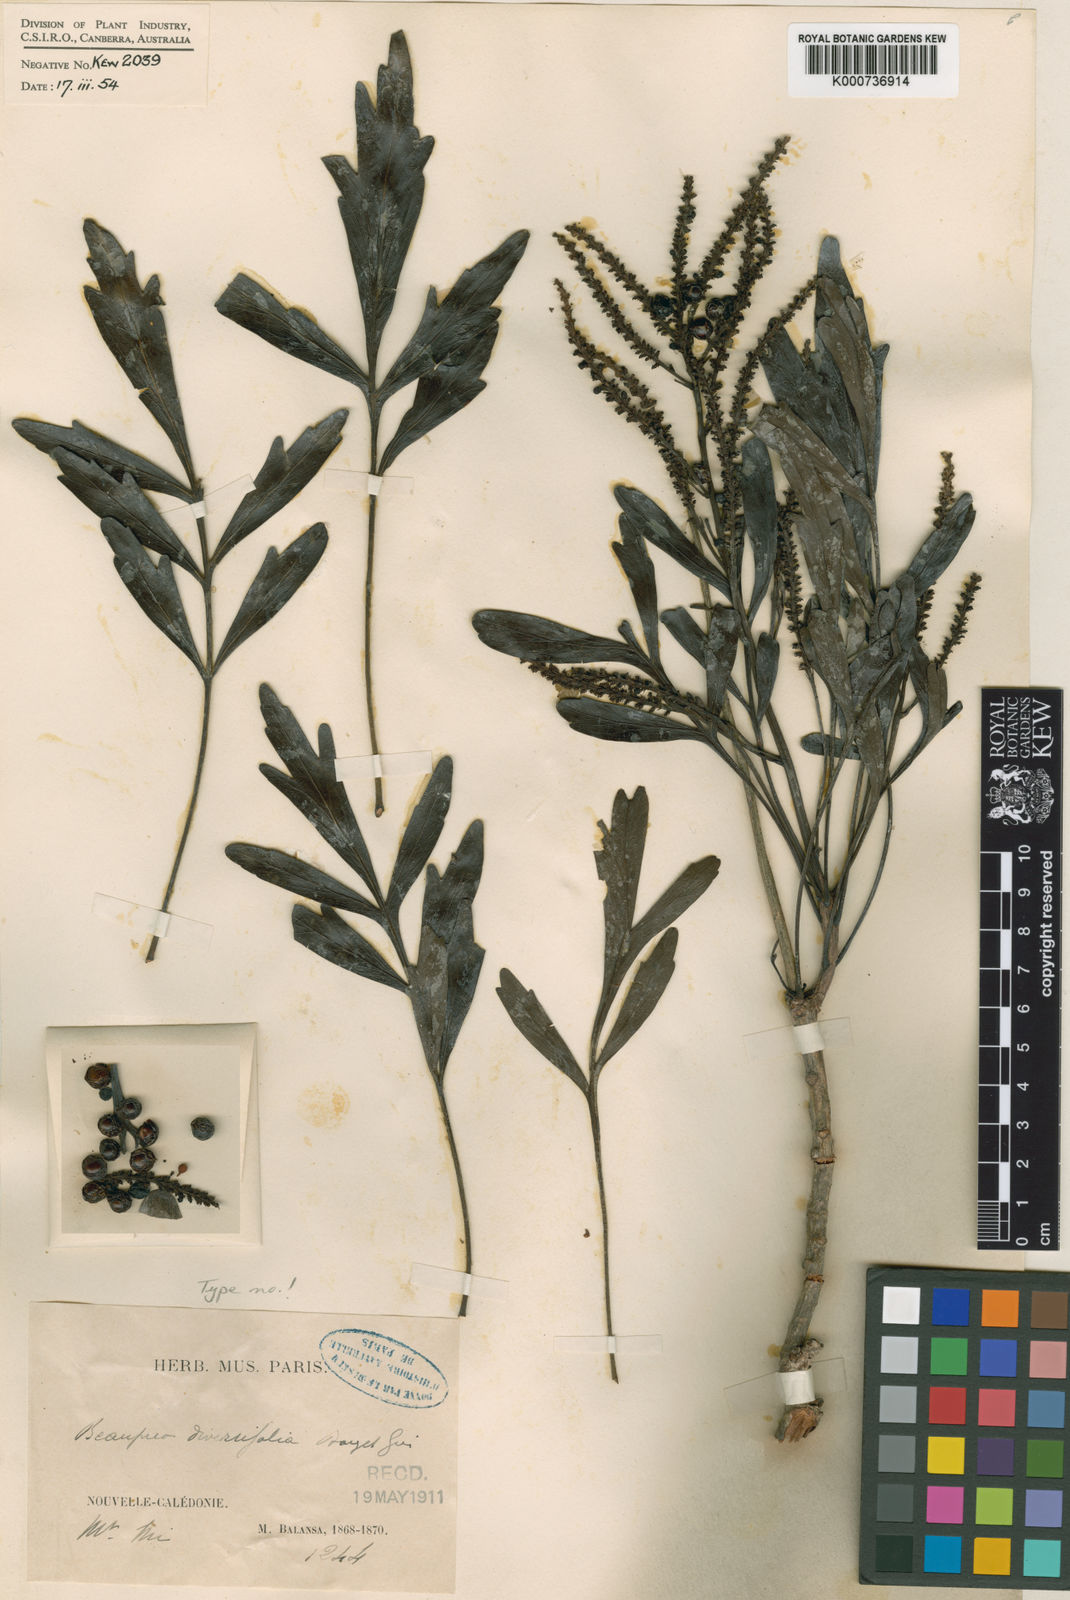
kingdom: Plantae
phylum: Tracheophyta
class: Magnoliopsida
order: Proteales
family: Proteaceae
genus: Beauprea
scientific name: Beauprea spathulifolia
